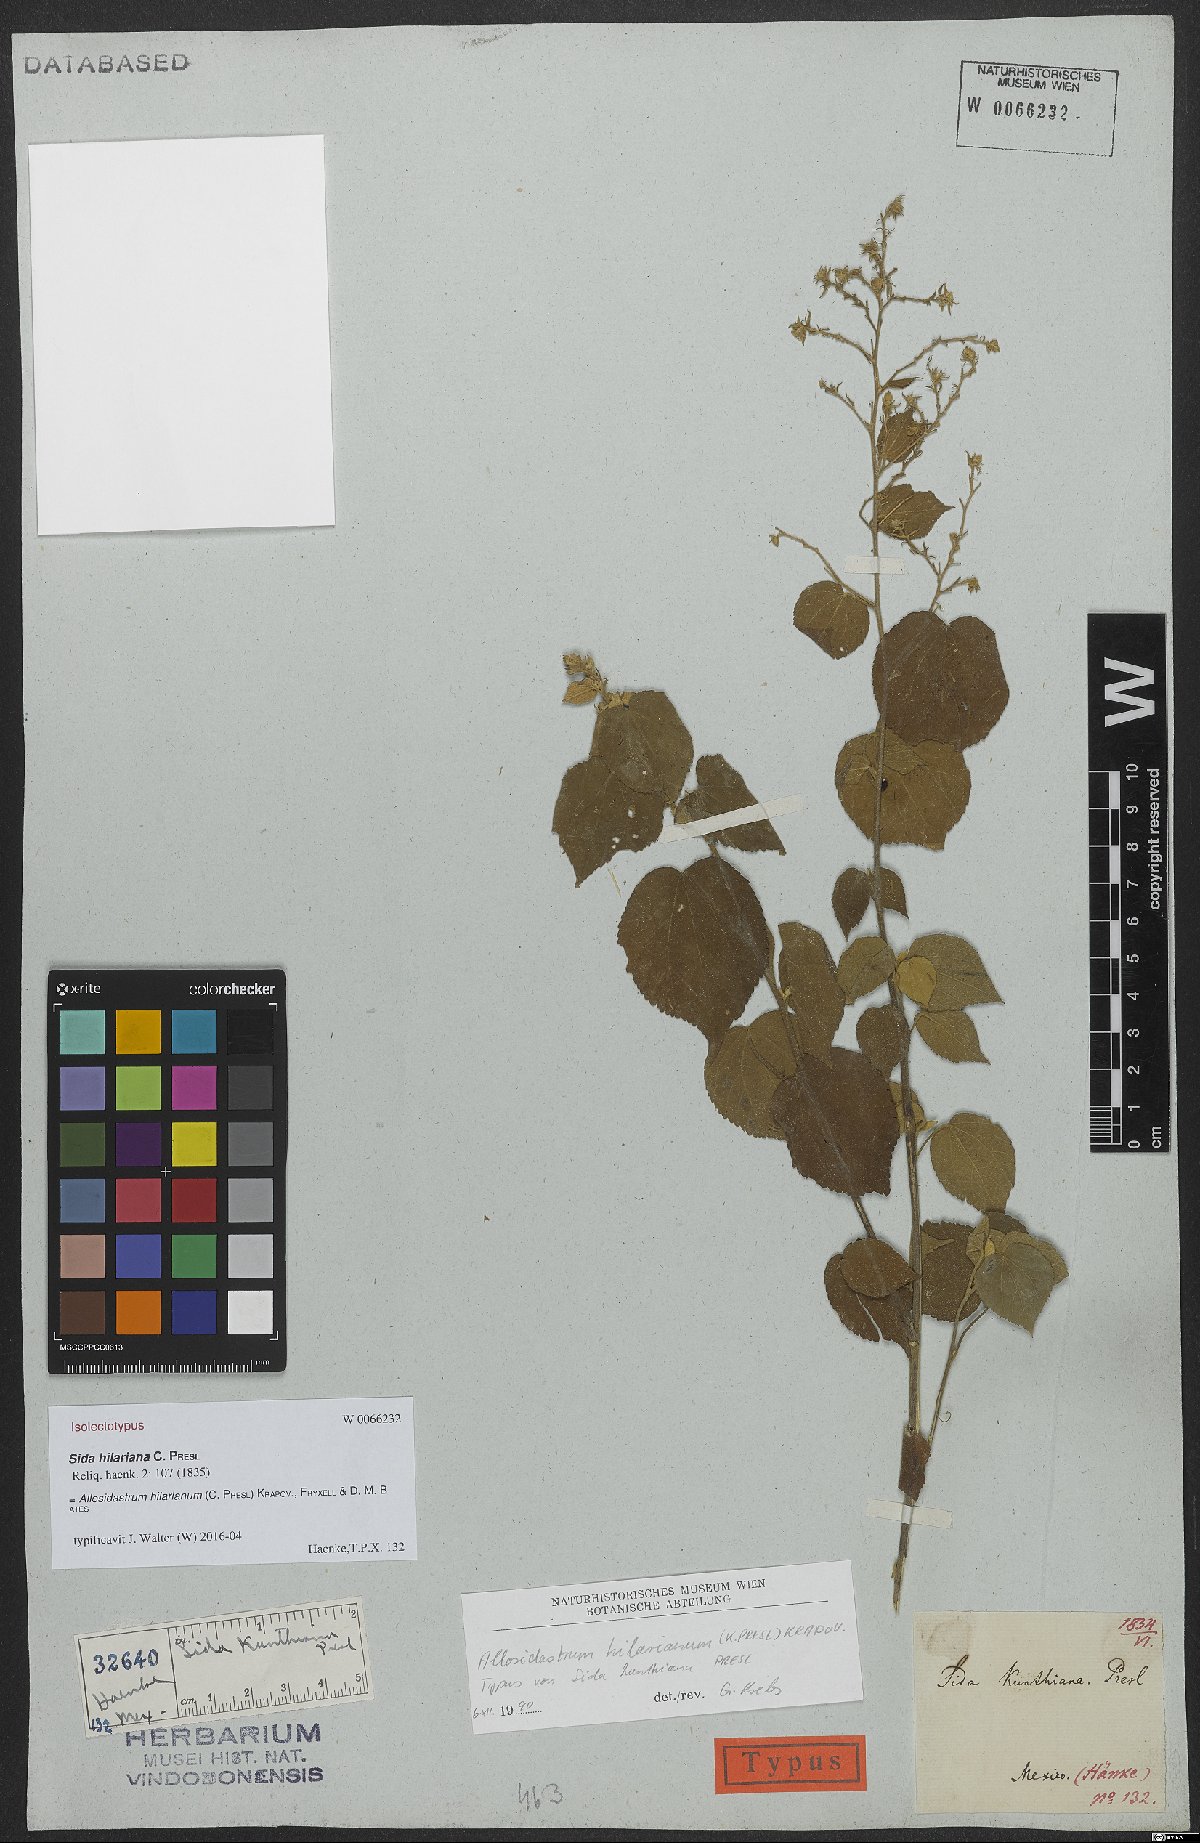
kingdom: Plantae
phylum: Tracheophyta
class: Magnoliopsida
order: Malvales
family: Malvaceae
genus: Allosidastrum
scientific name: Allosidastrum hilarianum
